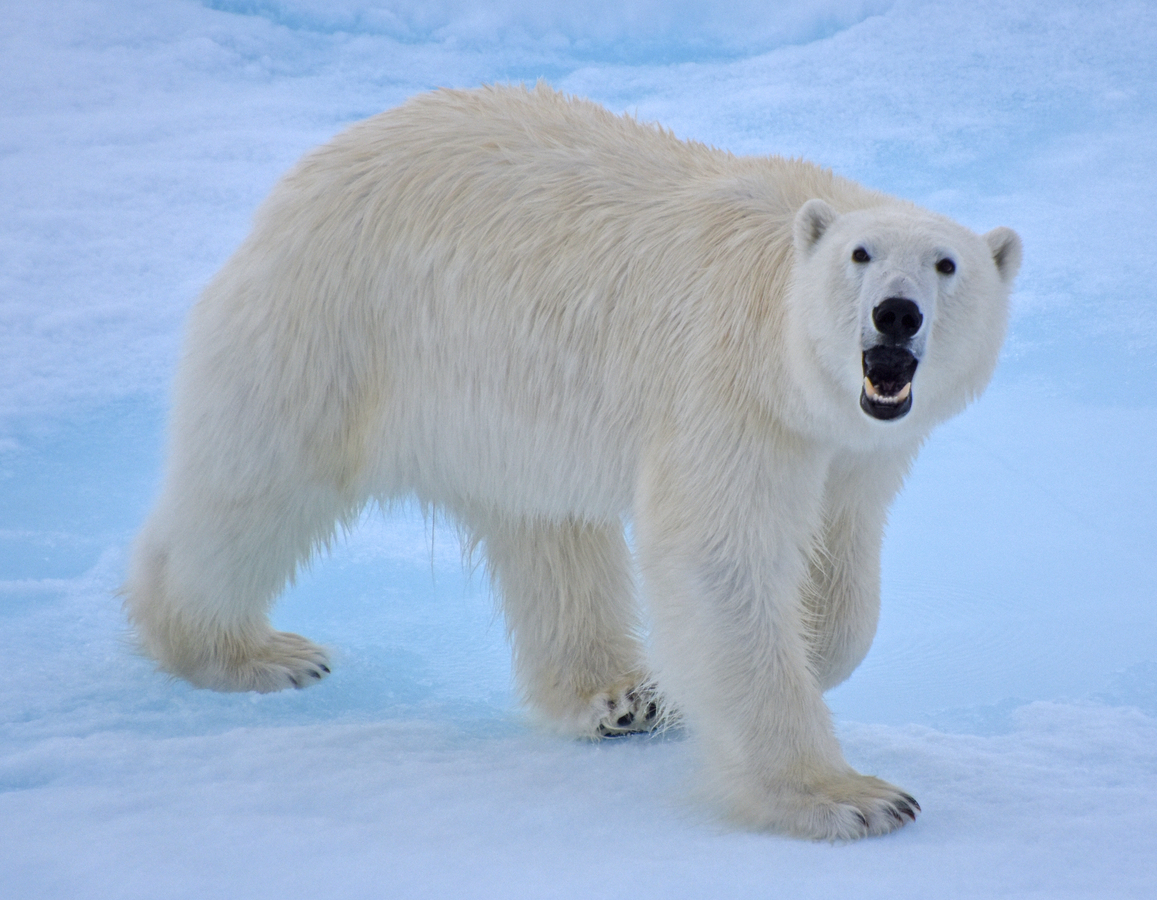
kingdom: Animalia
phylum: Chordata
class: Mammalia
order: Carnivora
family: Ursidae
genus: Ursus
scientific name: Ursus maritimus
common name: Polar Bear
